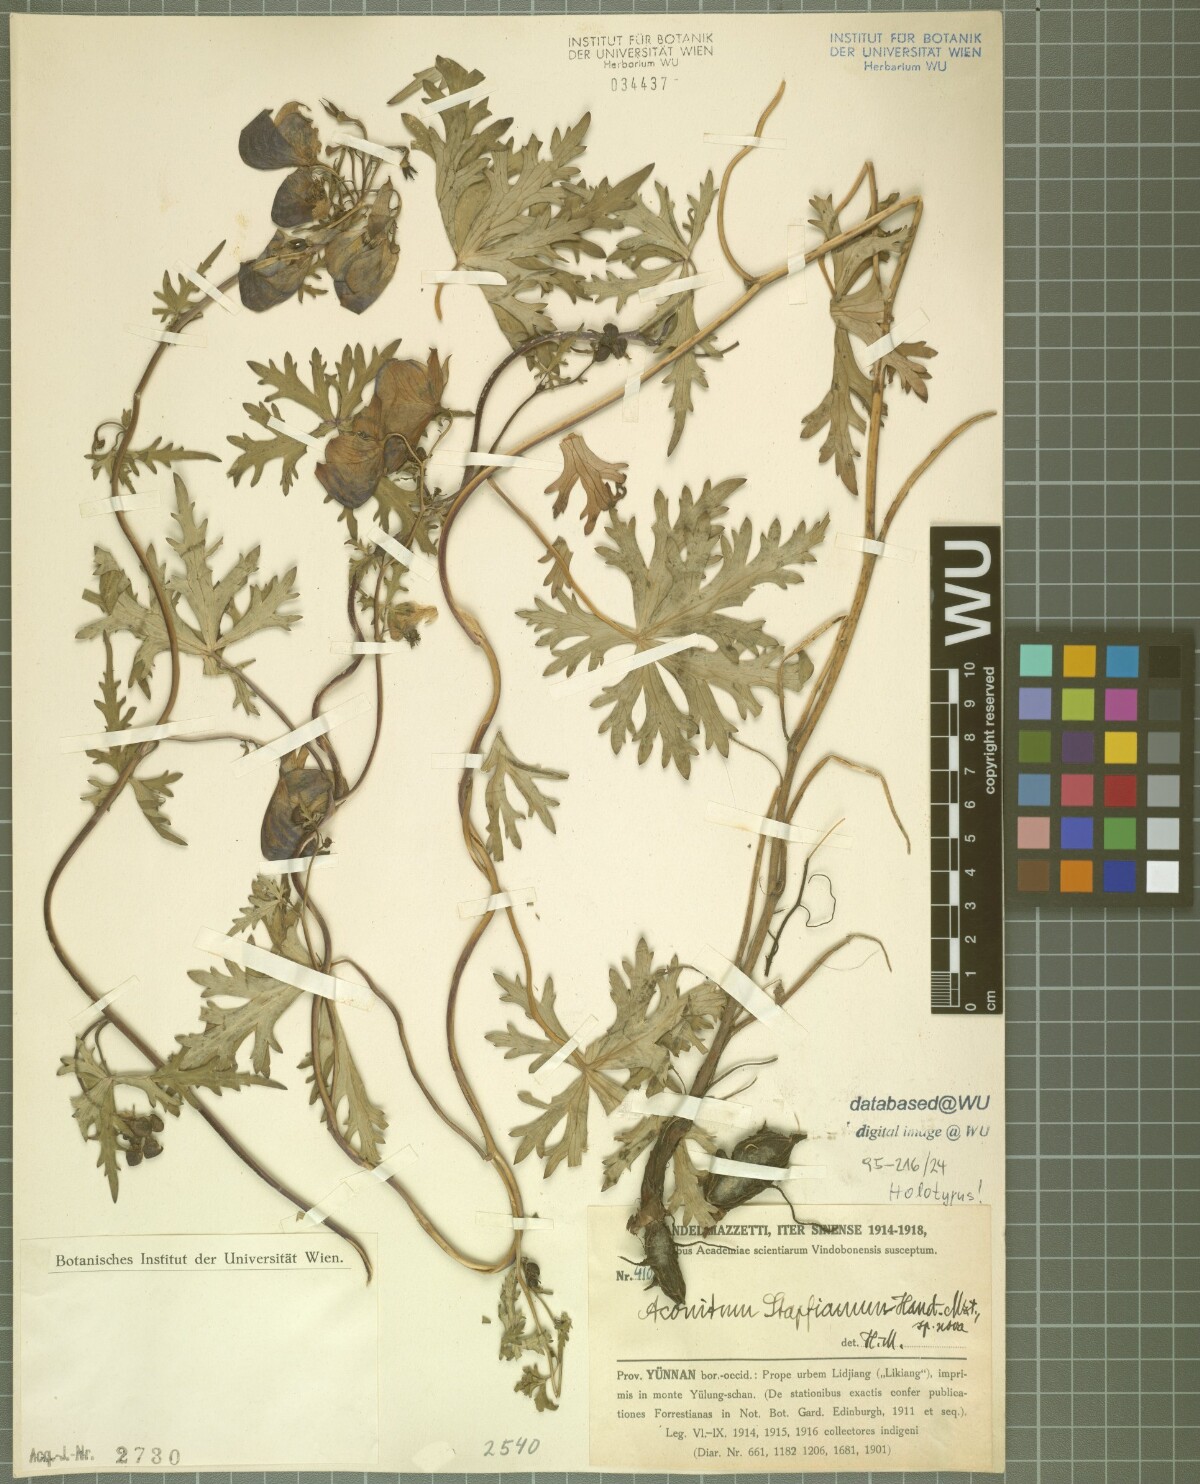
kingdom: Plantae
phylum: Tracheophyta
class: Magnoliopsida
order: Ranunculales
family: Ranunculaceae
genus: Aconitum
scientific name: Aconitum stapfianum
